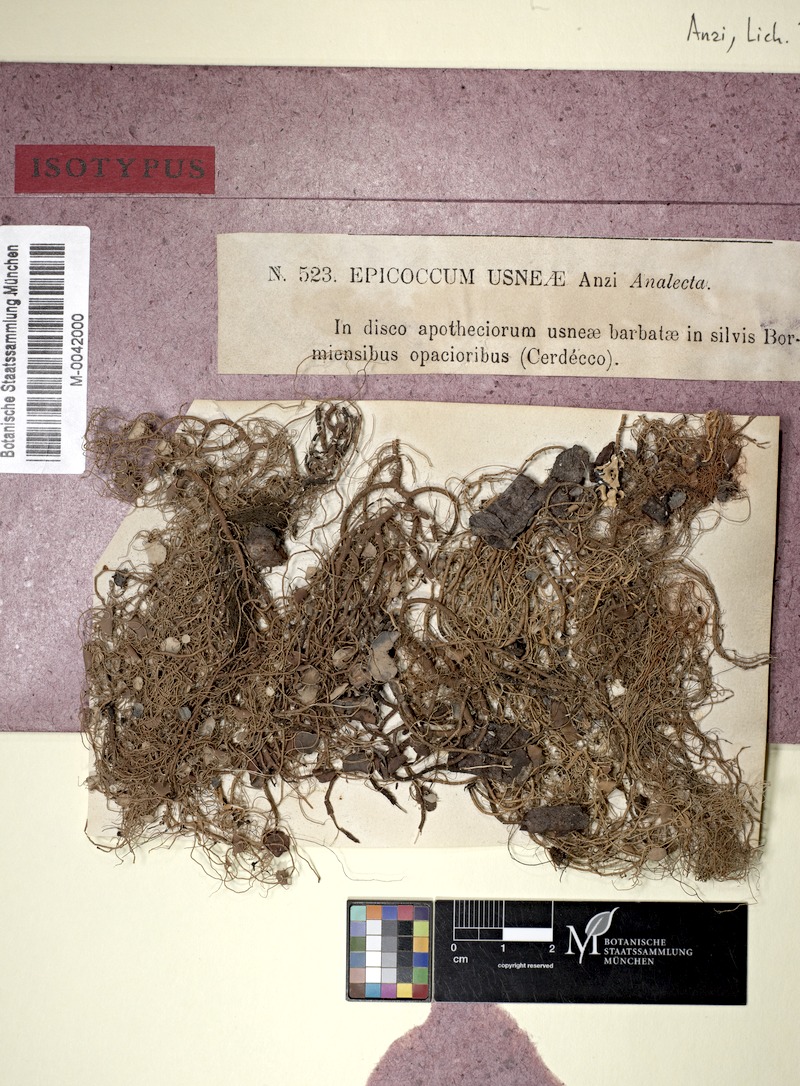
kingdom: Fungi
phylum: Ascomycota
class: Dothideomycetes
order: Lichenoconiales
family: Lichenoconiaceae
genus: Lichenoconium
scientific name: Lichenoconium usneae
